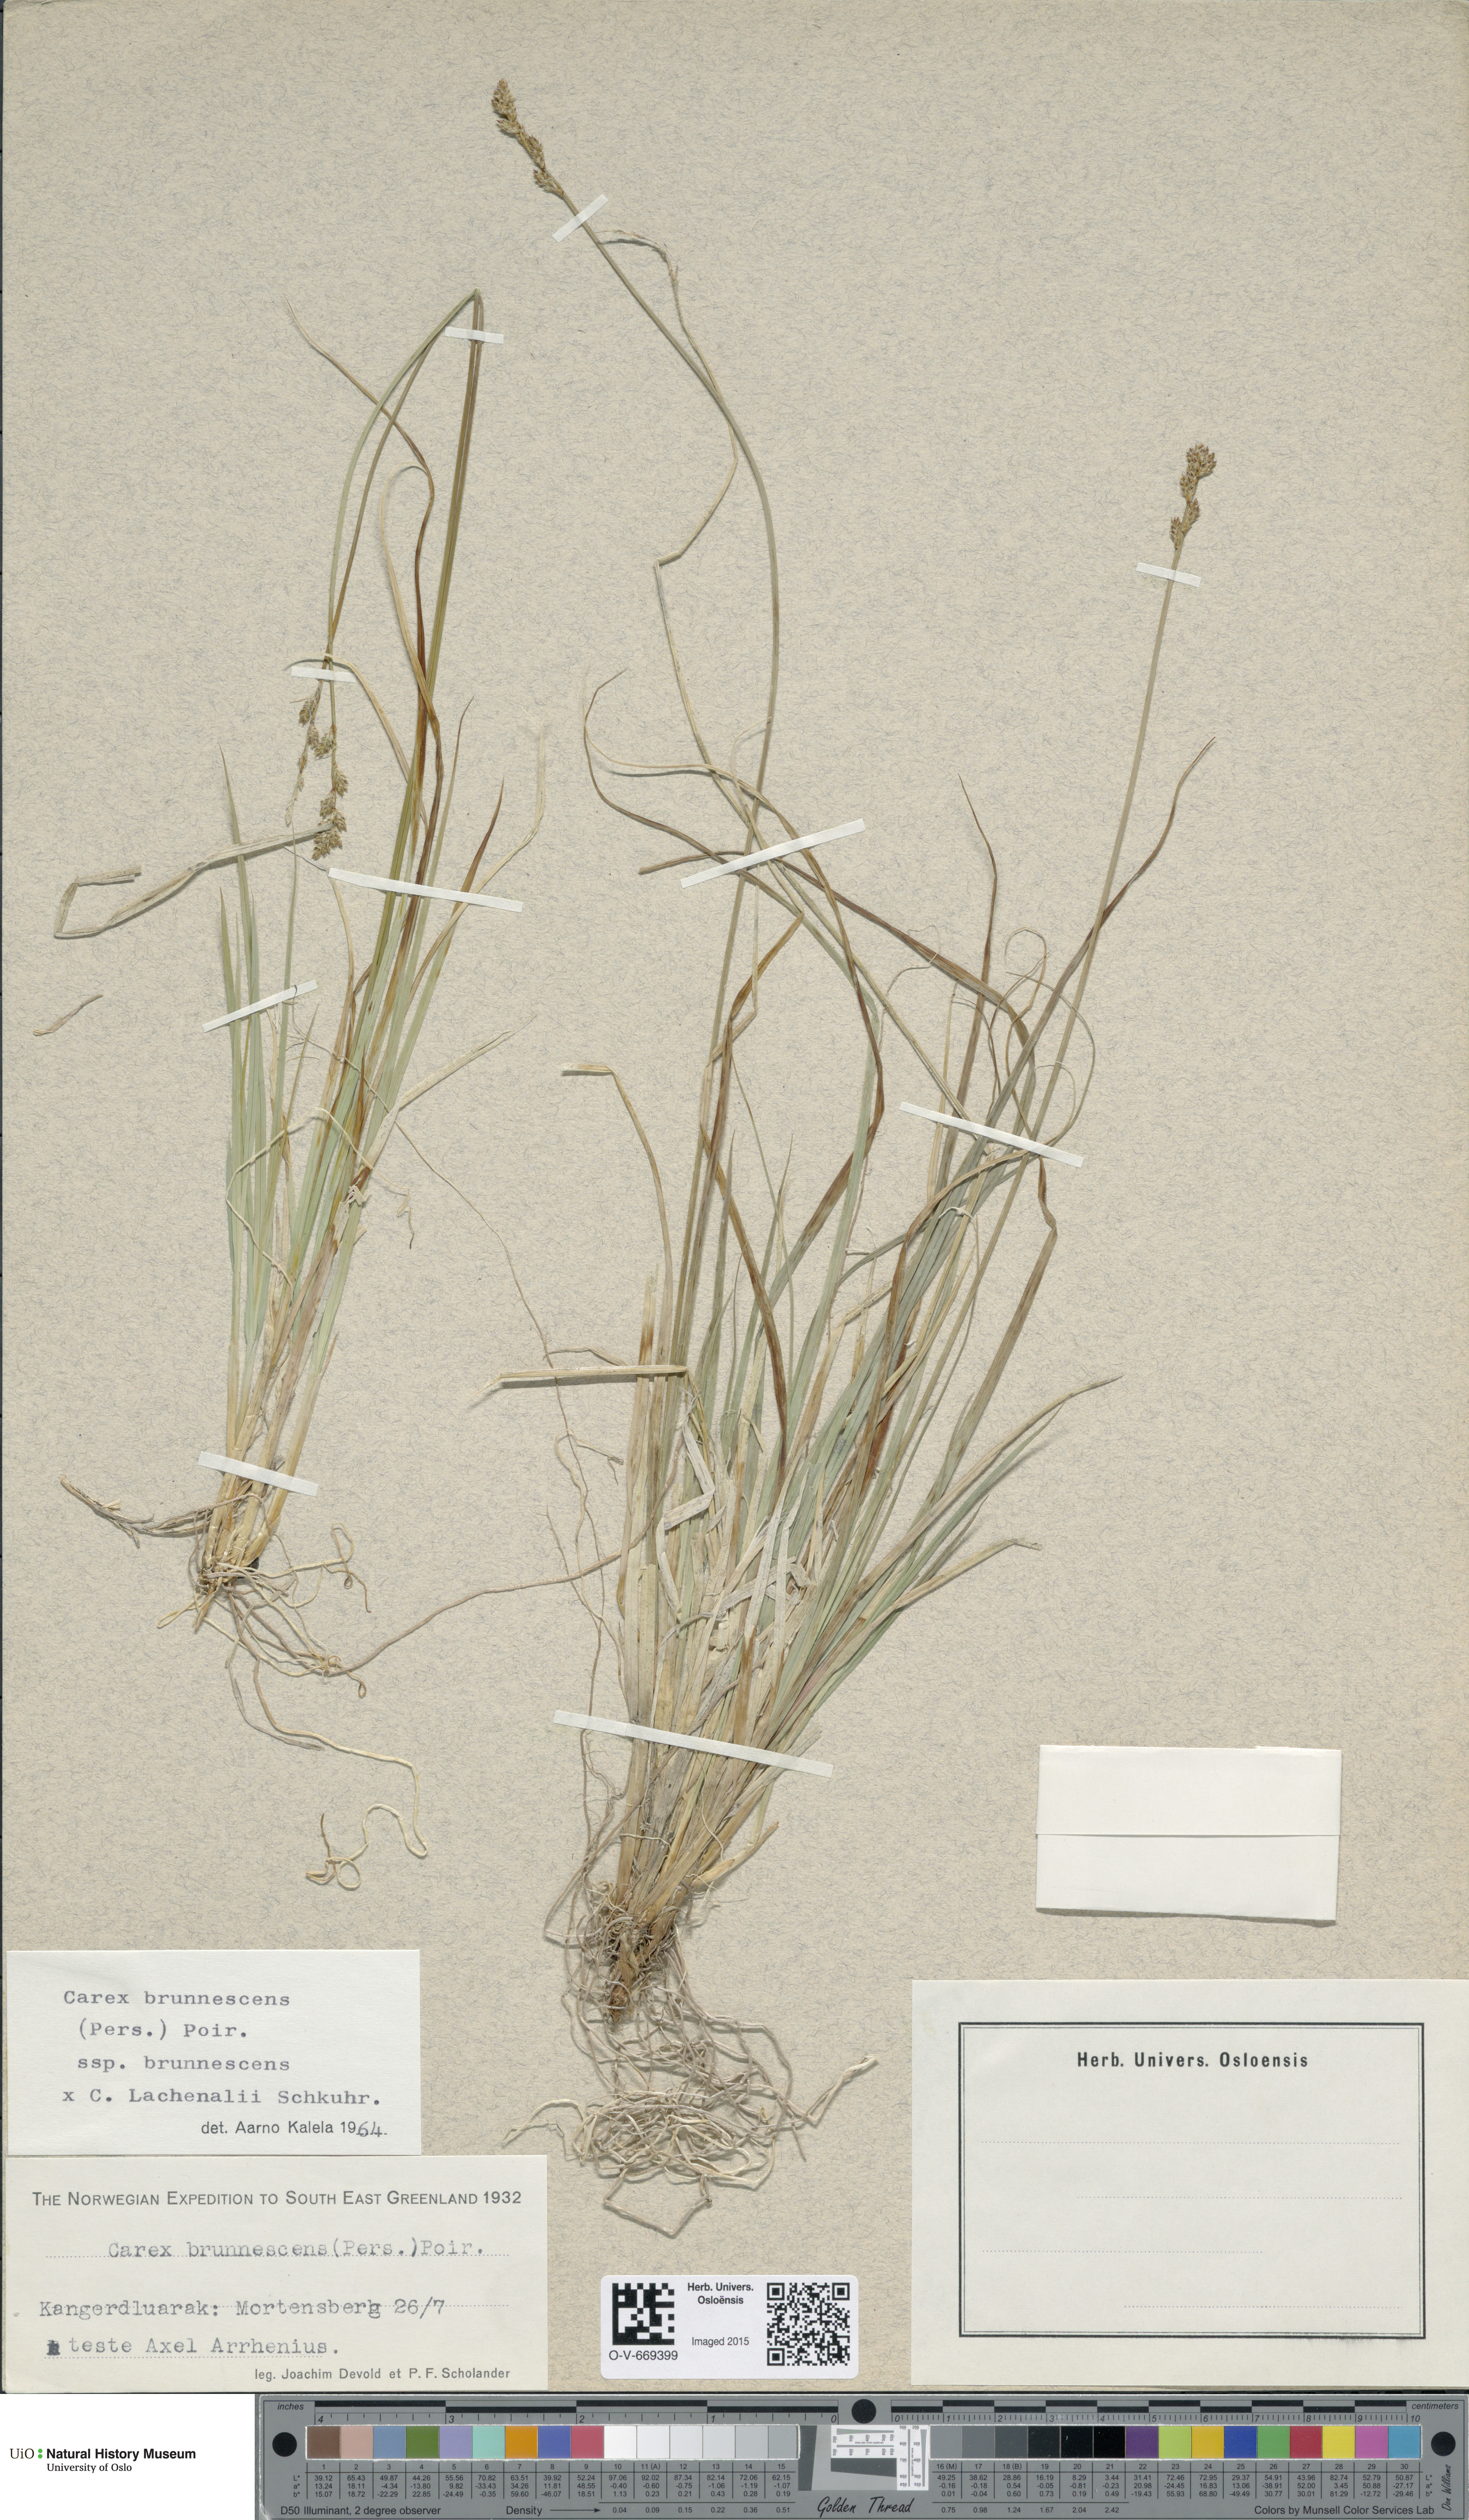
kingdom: Plantae
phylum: Tracheophyta
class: Liliopsida
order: Poales
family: Cyperaceae
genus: Carex
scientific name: Carex
